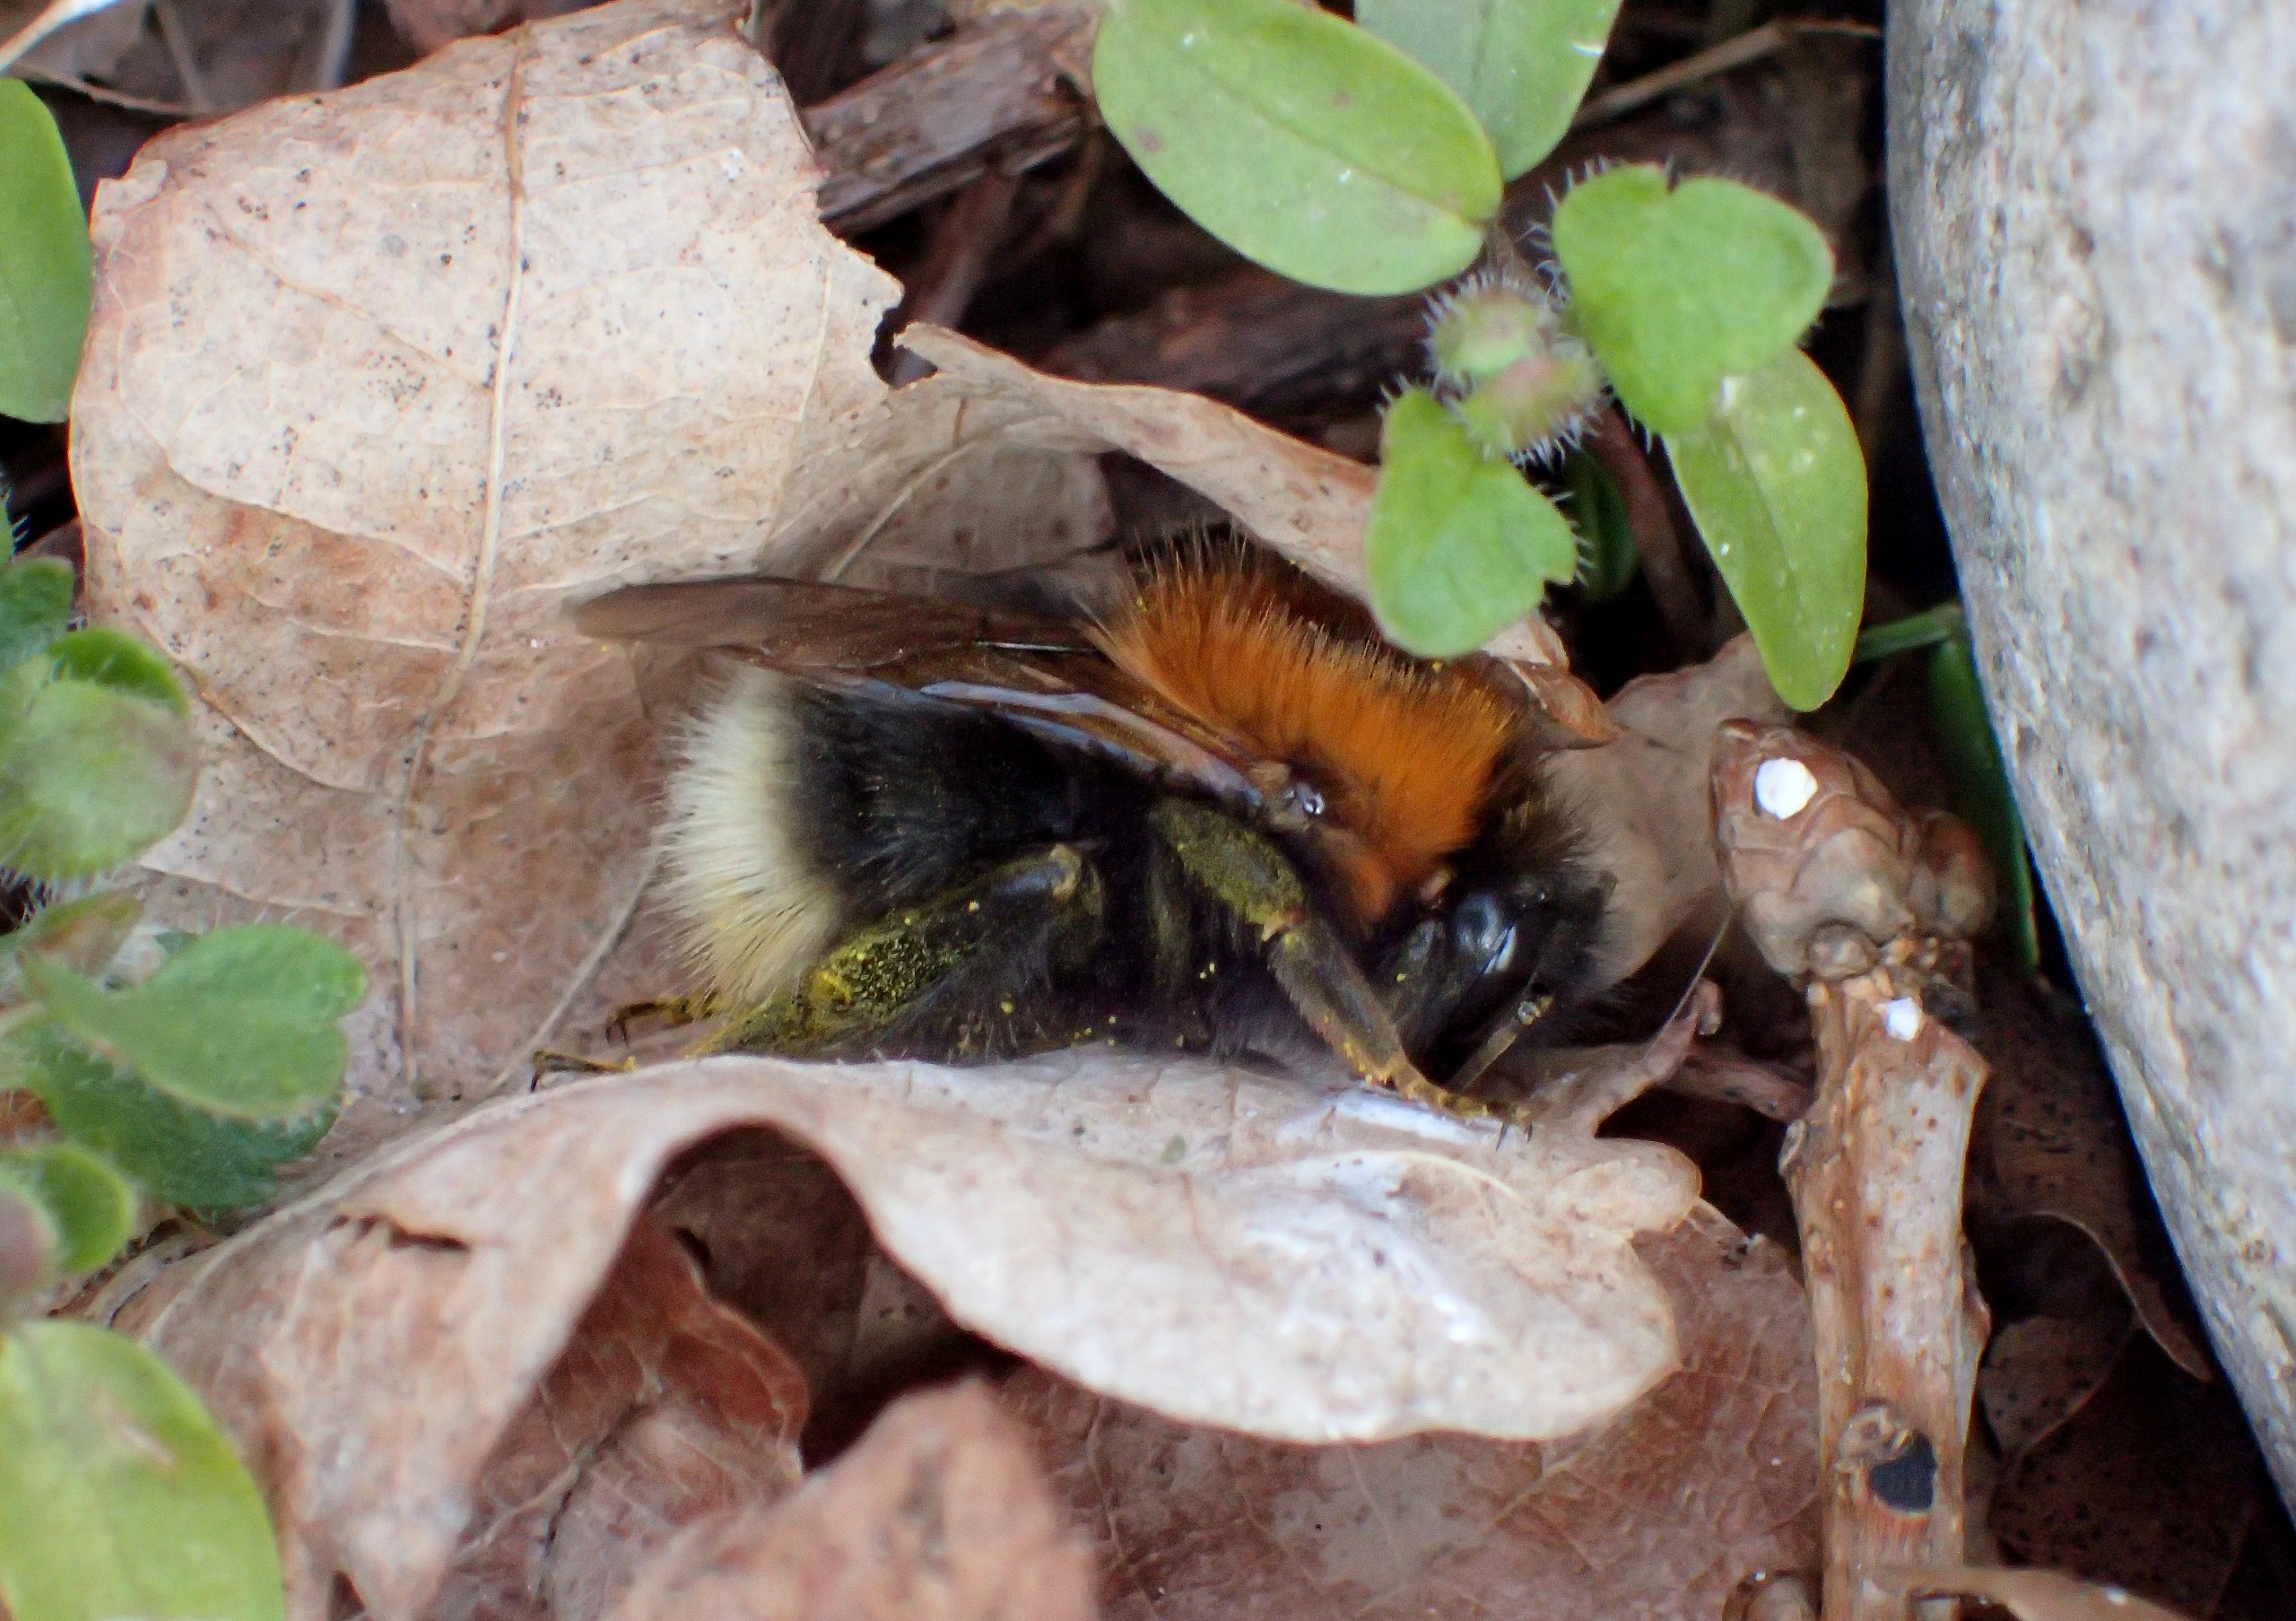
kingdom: Animalia
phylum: Arthropoda
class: Insecta
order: Hymenoptera
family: Apidae
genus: Bombus
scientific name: Bombus hypnorum
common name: Hushumle
